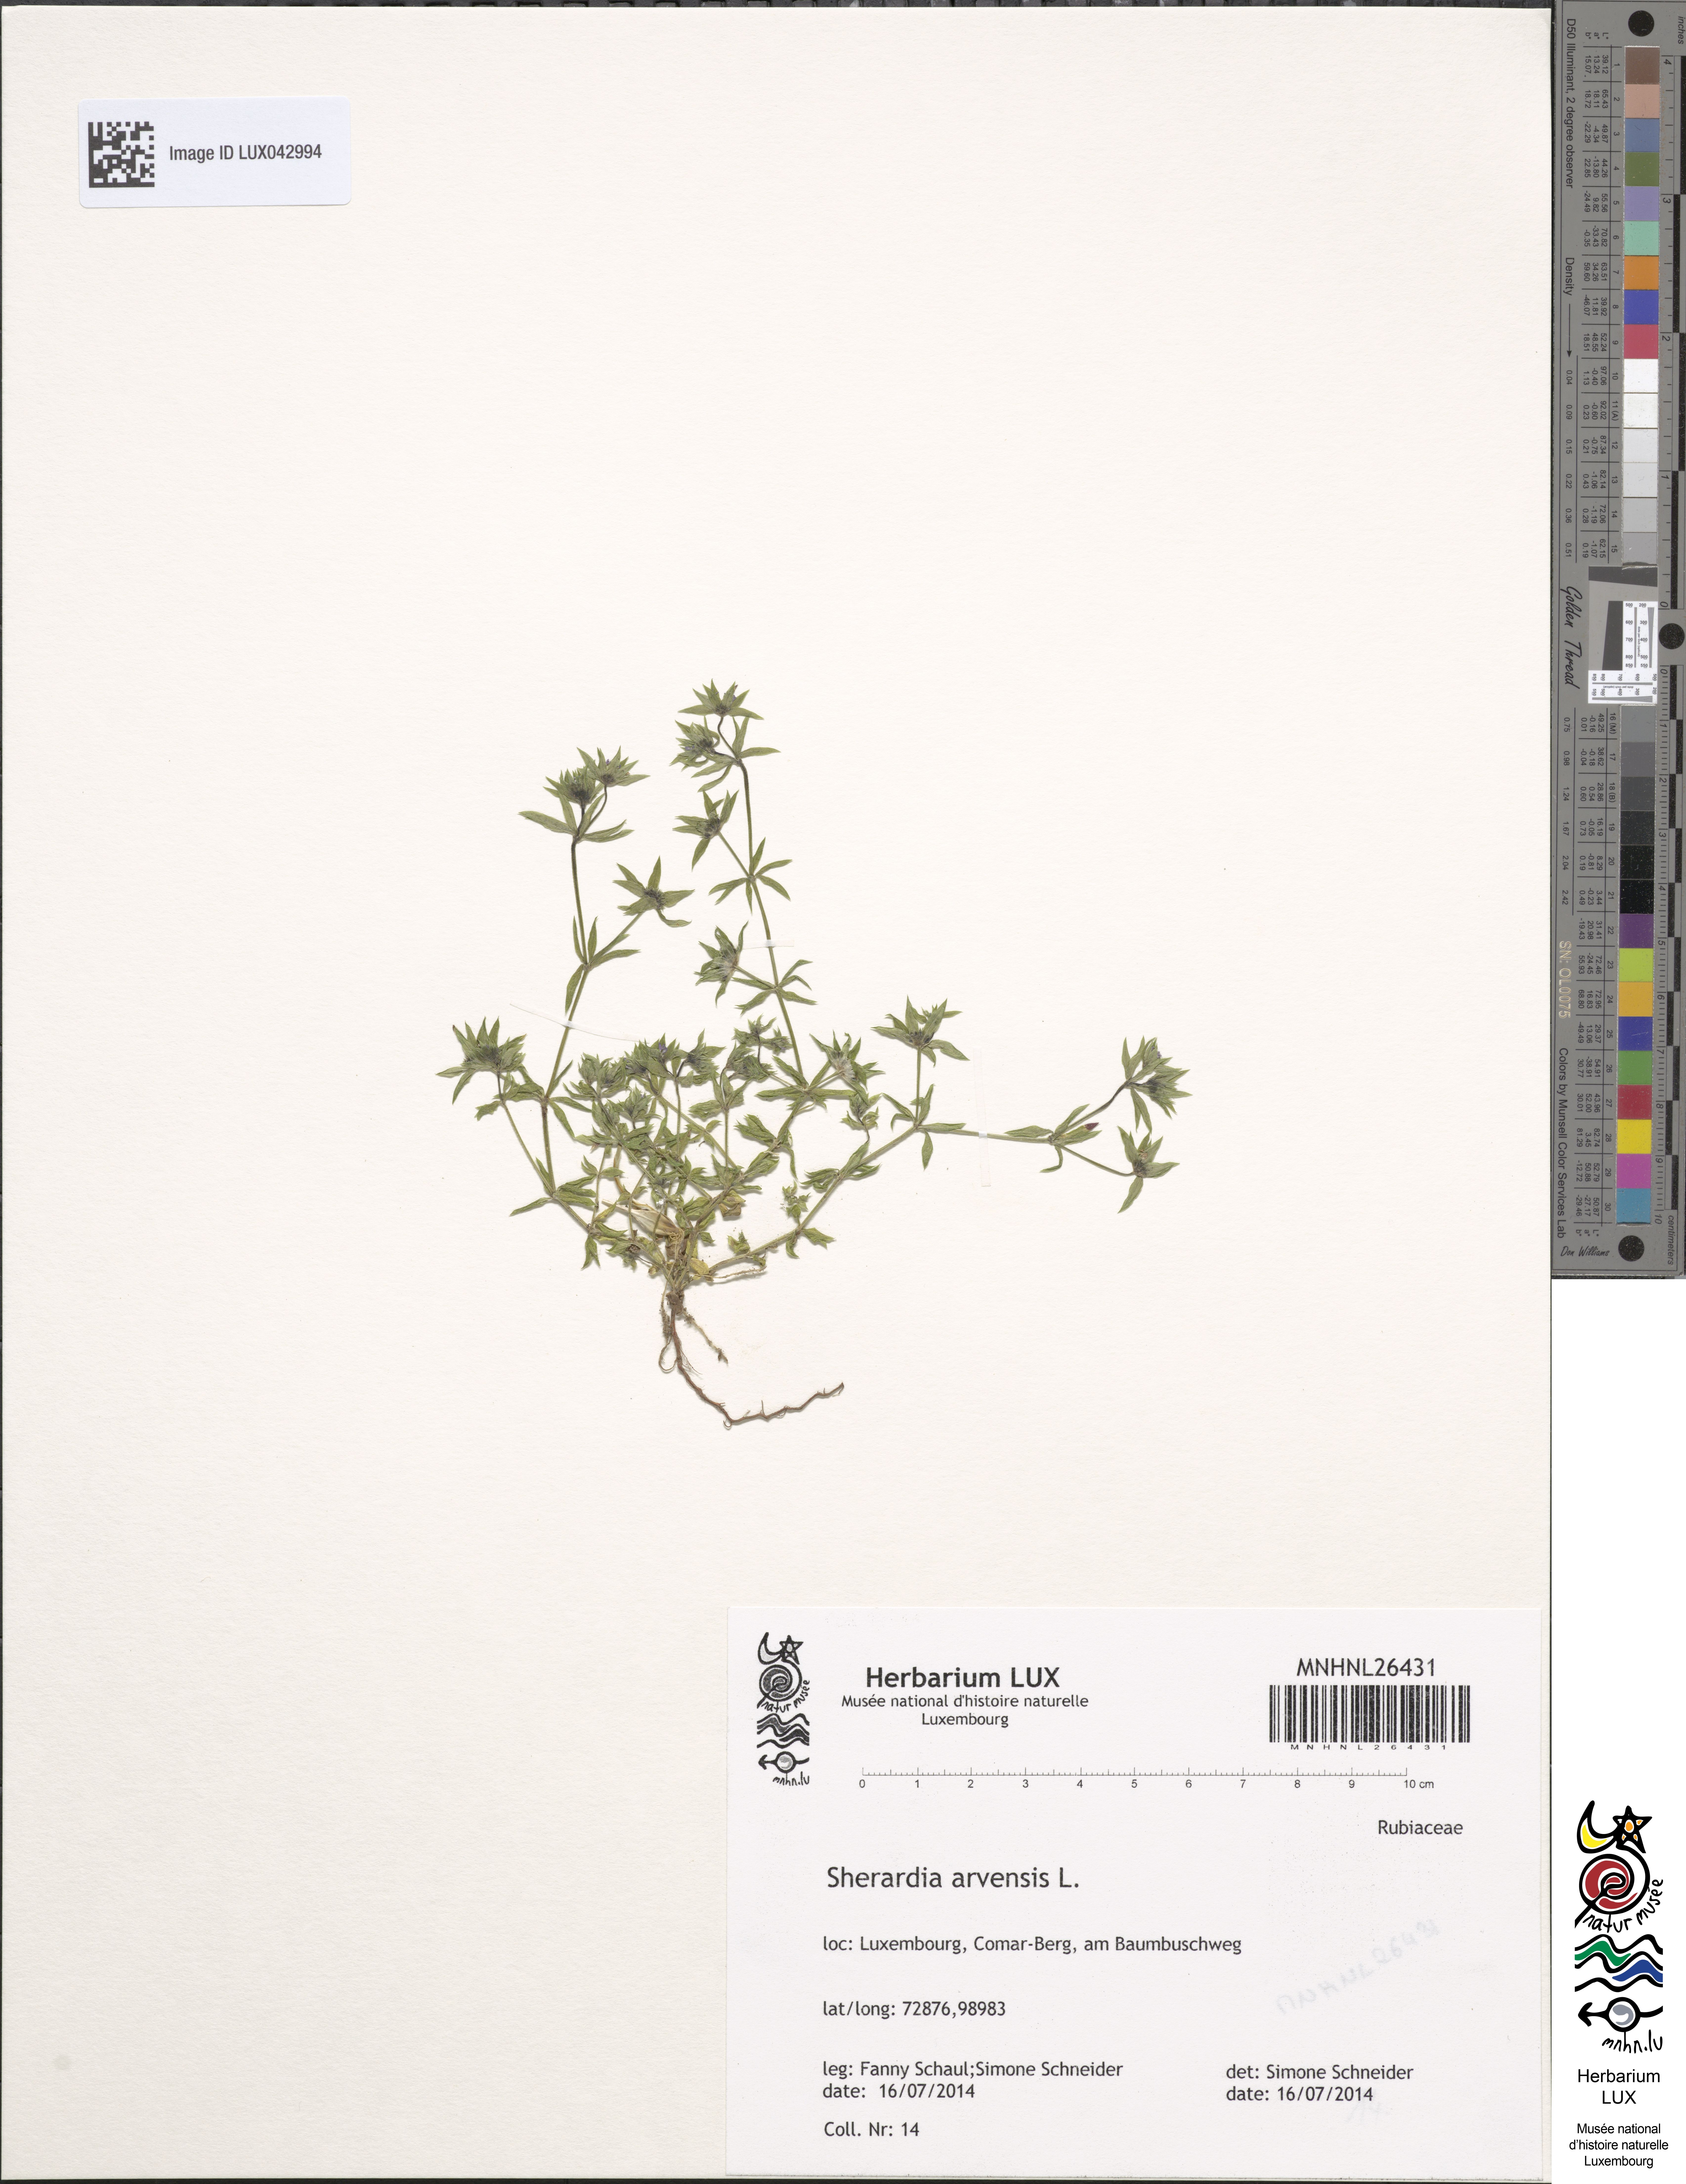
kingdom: Plantae
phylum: Tracheophyta
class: Magnoliopsida
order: Gentianales
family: Rubiaceae
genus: Sherardia
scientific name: Sherardia arvensis
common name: Field madder
